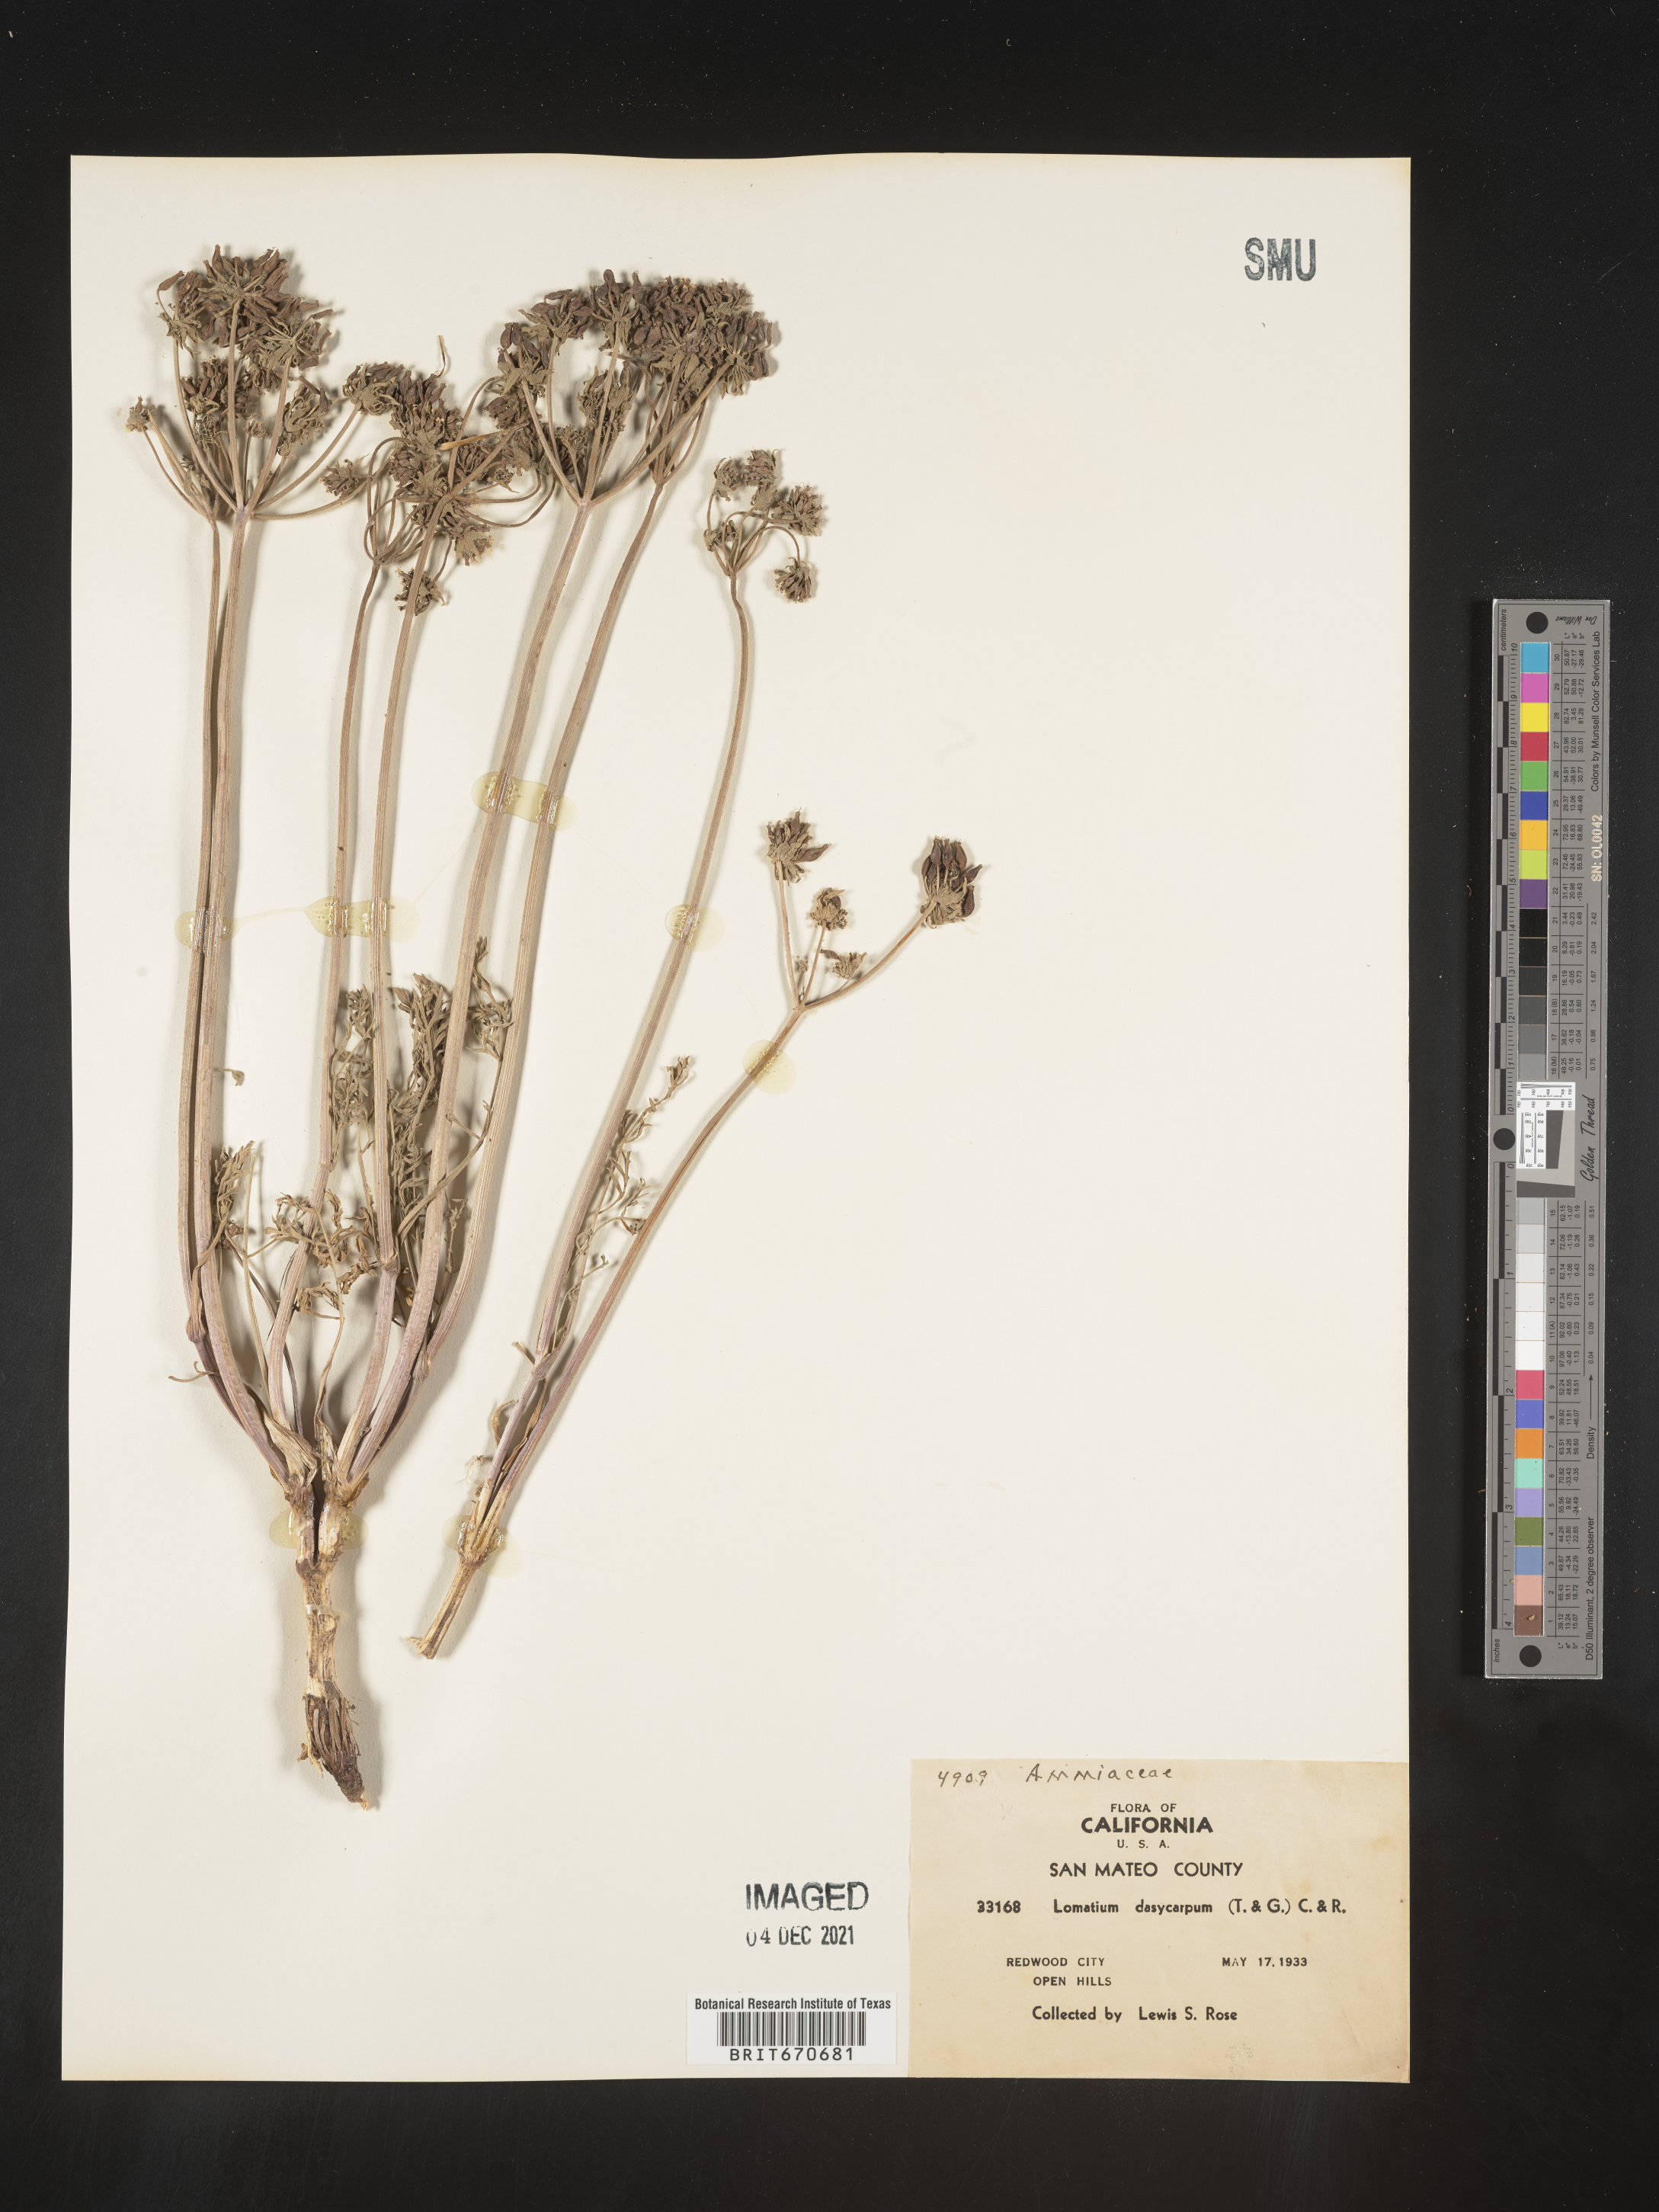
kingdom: Plantae
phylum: Tracheophyta
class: Magnoliopsida
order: Apiales
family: Apiaceae
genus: Lomatium
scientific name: Lomatium dasycarpum
